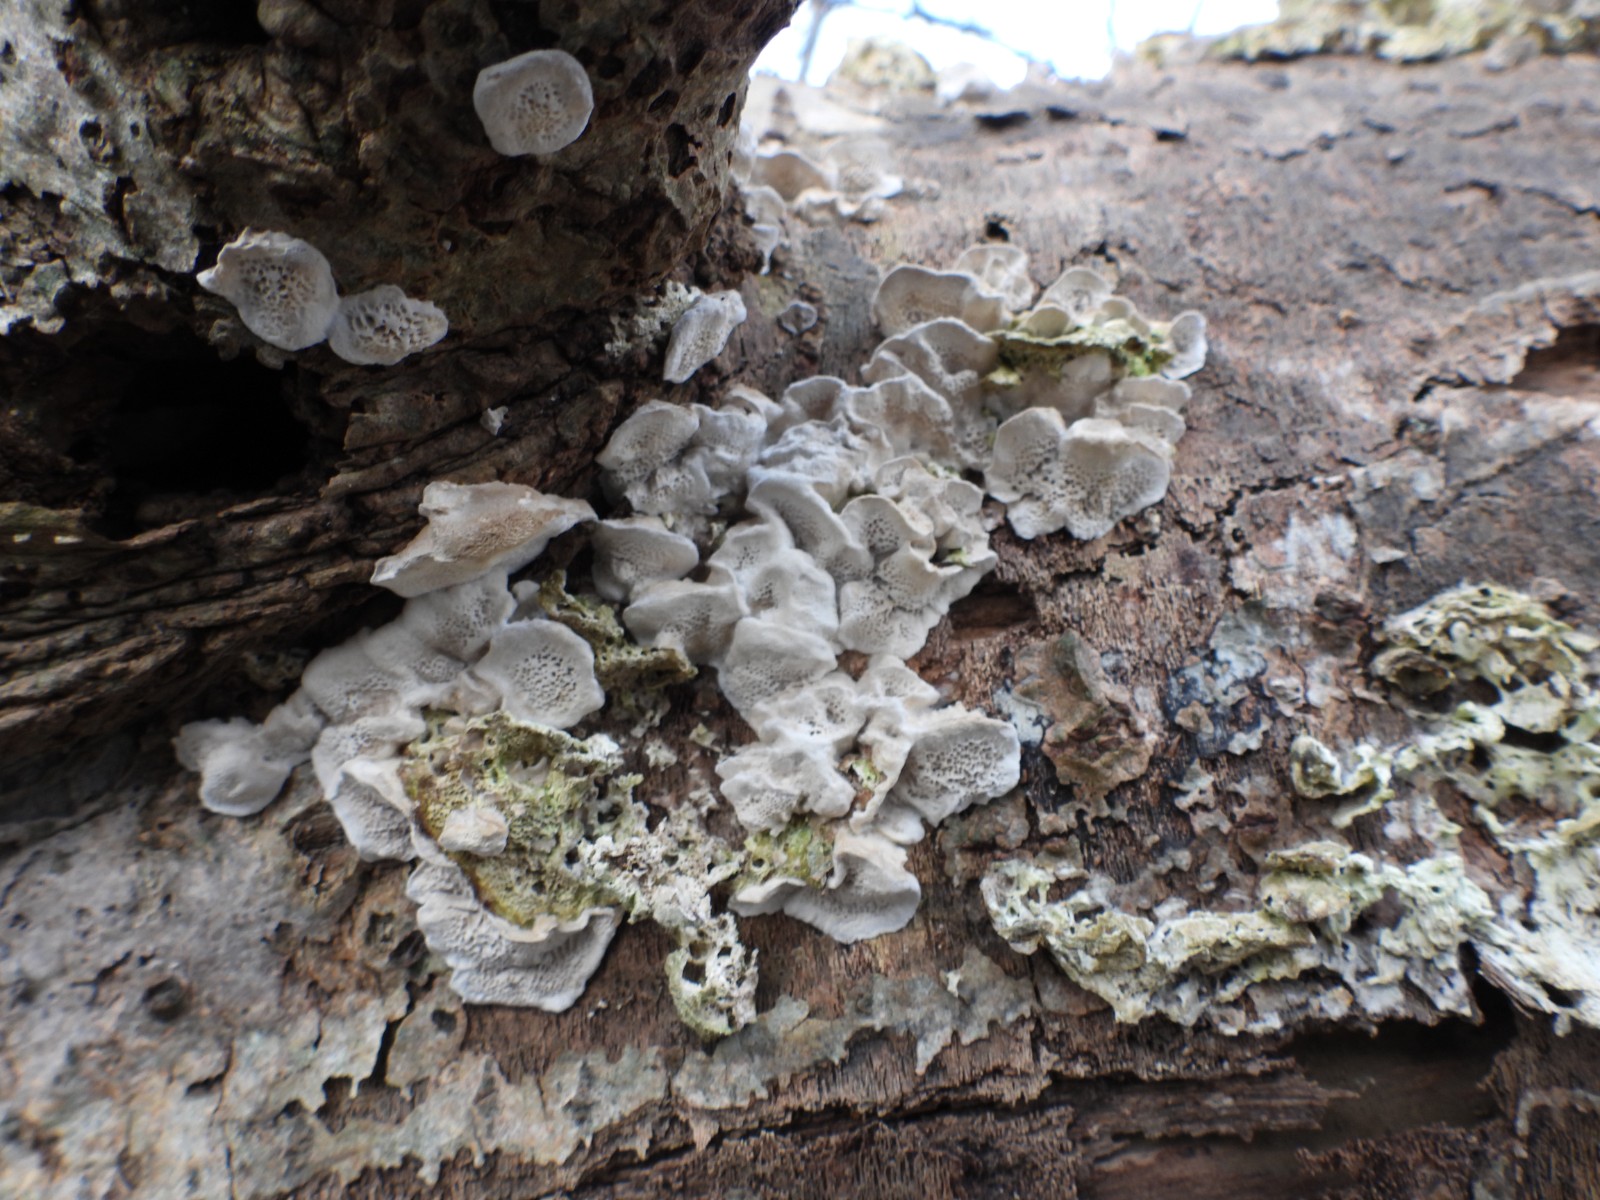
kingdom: Fungi
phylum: Basidiomycota
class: Agaricomycetes
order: Polyporales
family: Polyporaceae
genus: Trametes
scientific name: Trametes hirsuta
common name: håret læderporesvamp
